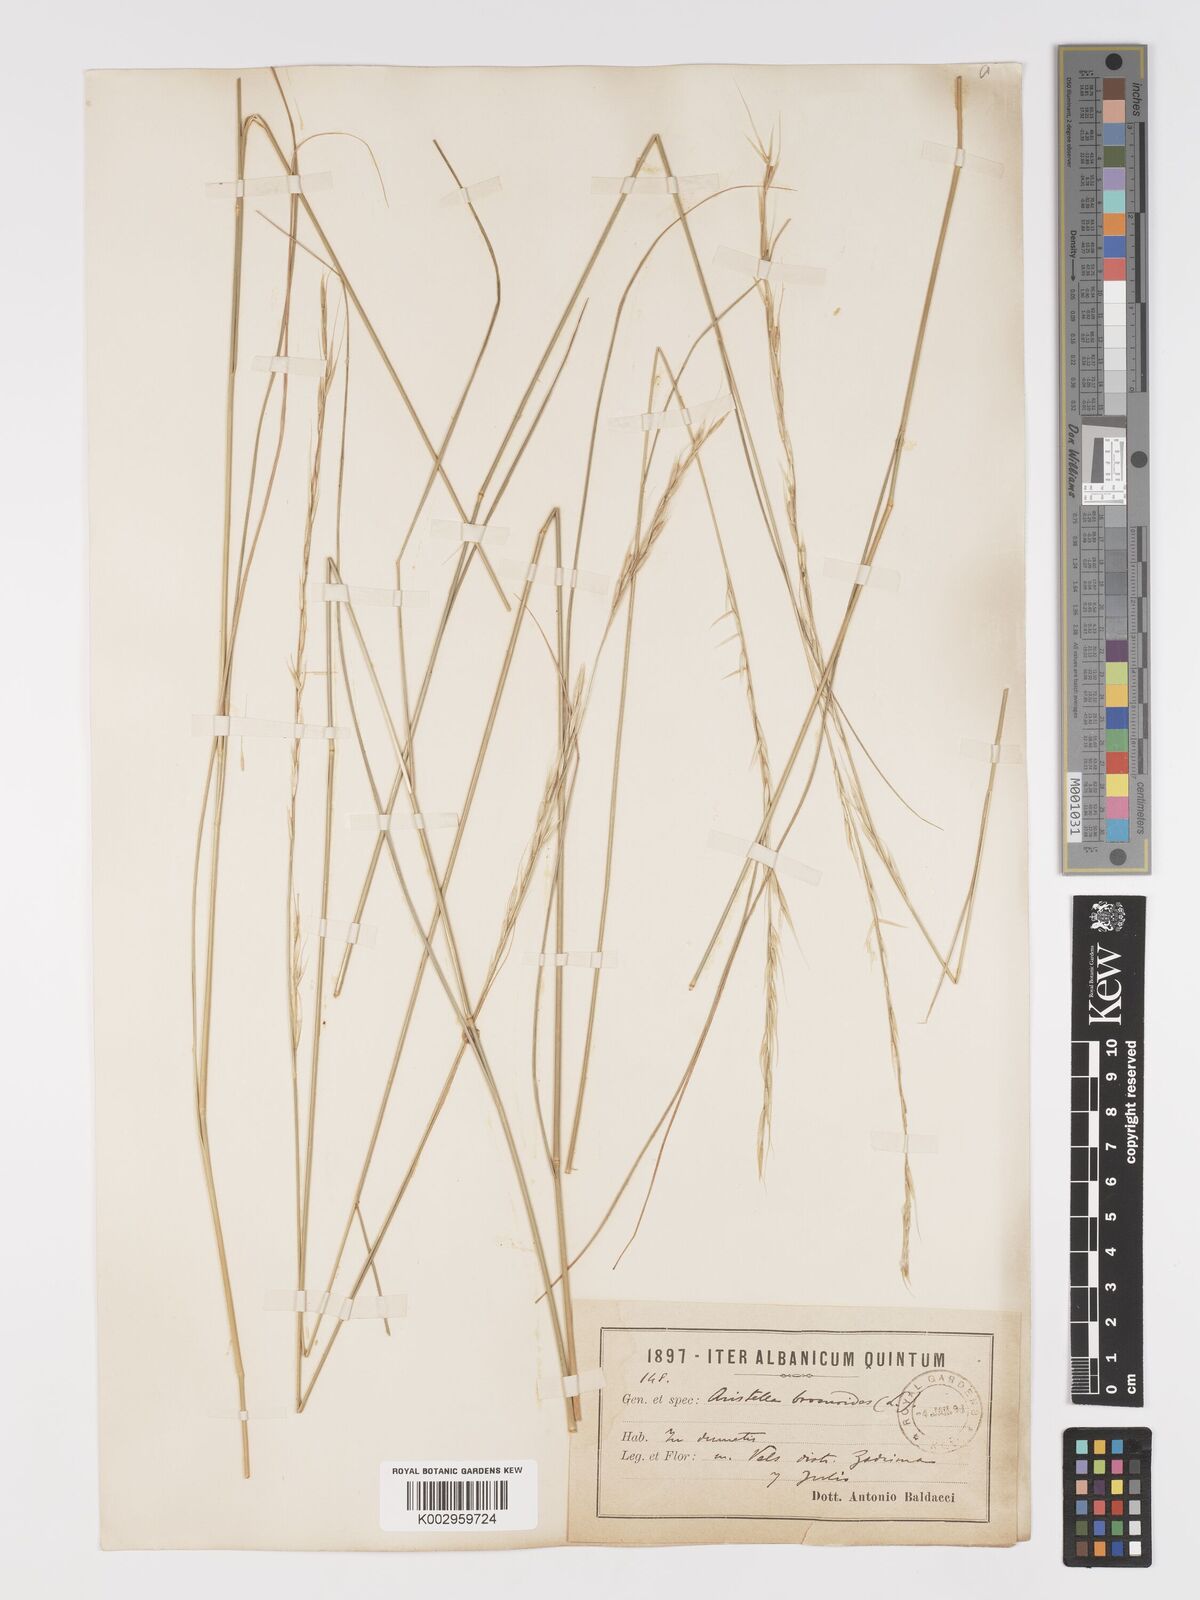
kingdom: Plantae
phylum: Tracheophyta
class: Liliopsida
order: Poales
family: Poaceae
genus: Achnatherum
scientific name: Achnatherum bromoides
